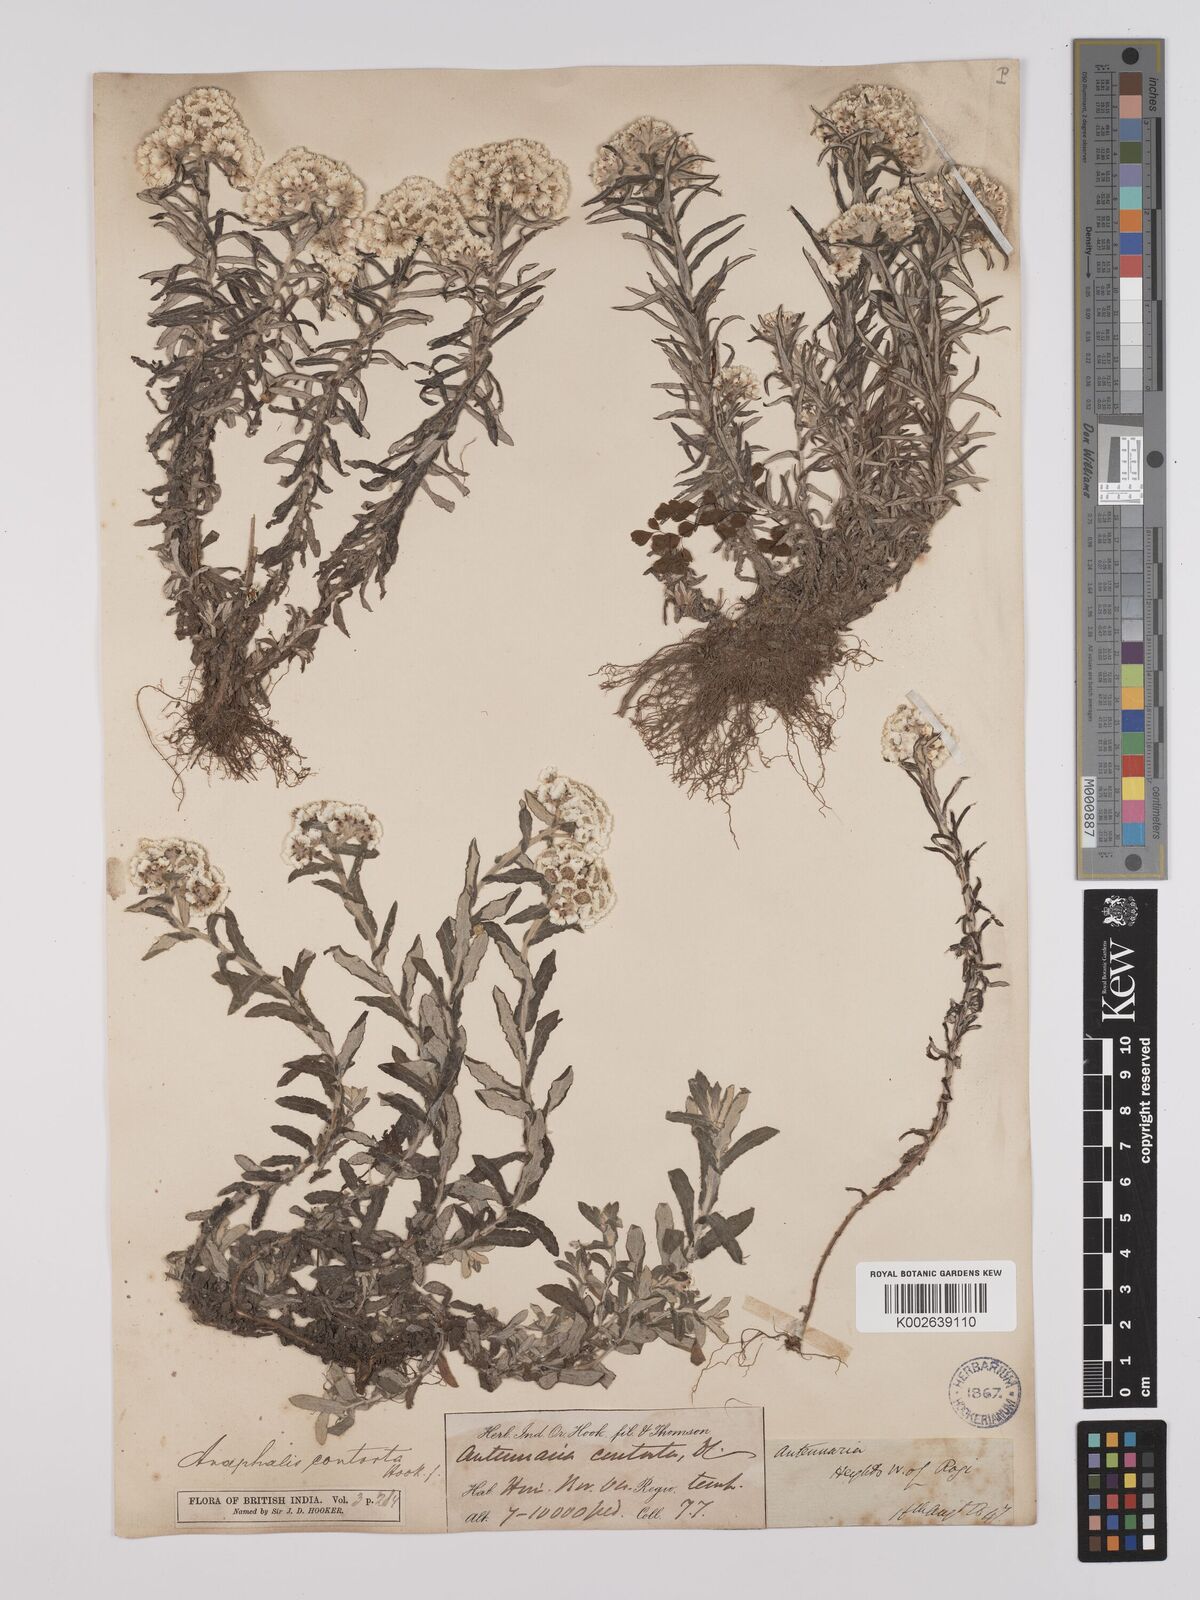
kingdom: Plantae
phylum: Tracheophyta
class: Magnoliopsida
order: Asterales
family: Asteraceae
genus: Anaphalis
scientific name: Anaphalis contorta
